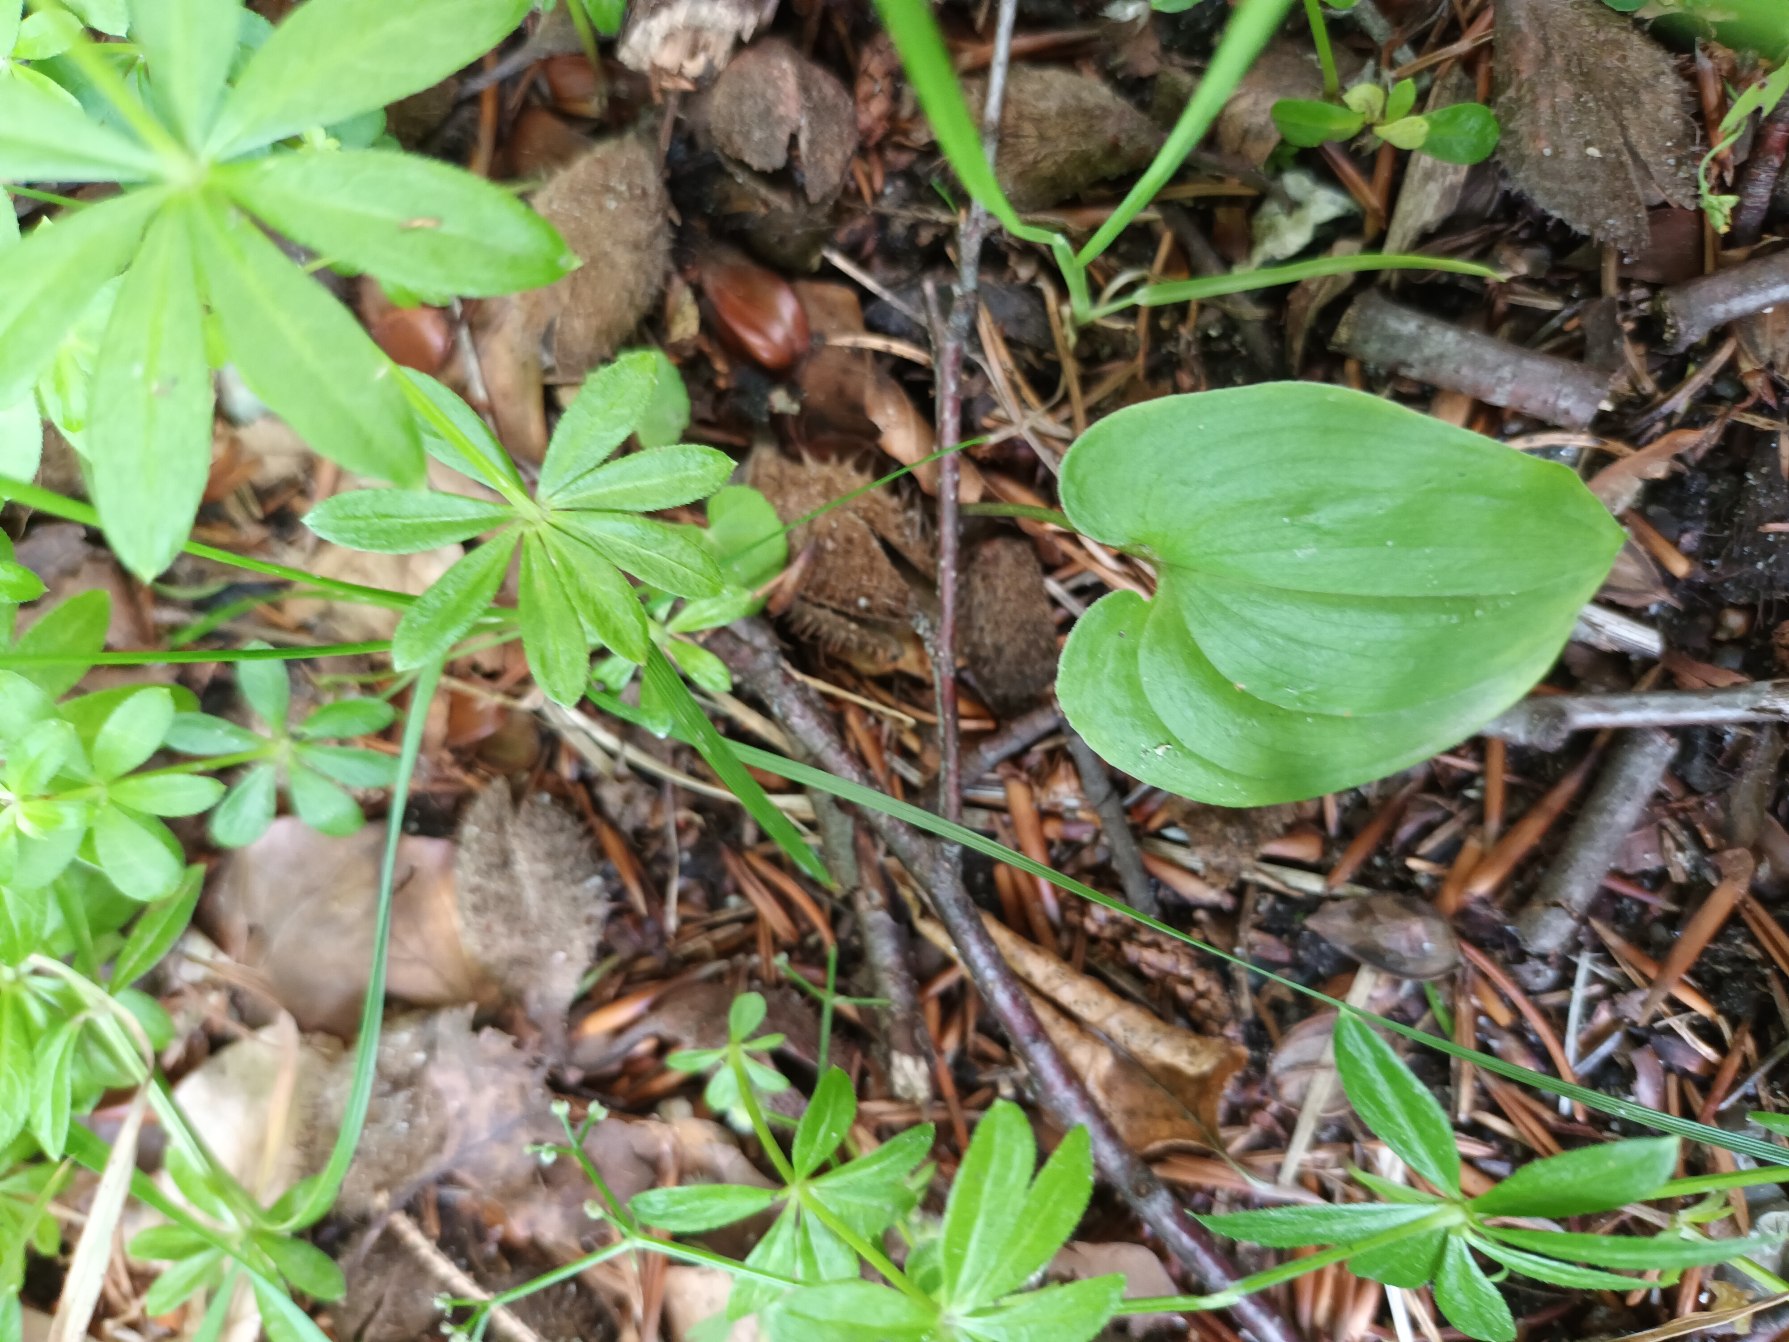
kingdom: Plantae
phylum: Tracheophyta
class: Liliopsida
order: Asparagales
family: Asparagaceae
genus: Maianthemum
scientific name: Maianthemum bifolium
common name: Majblomst
